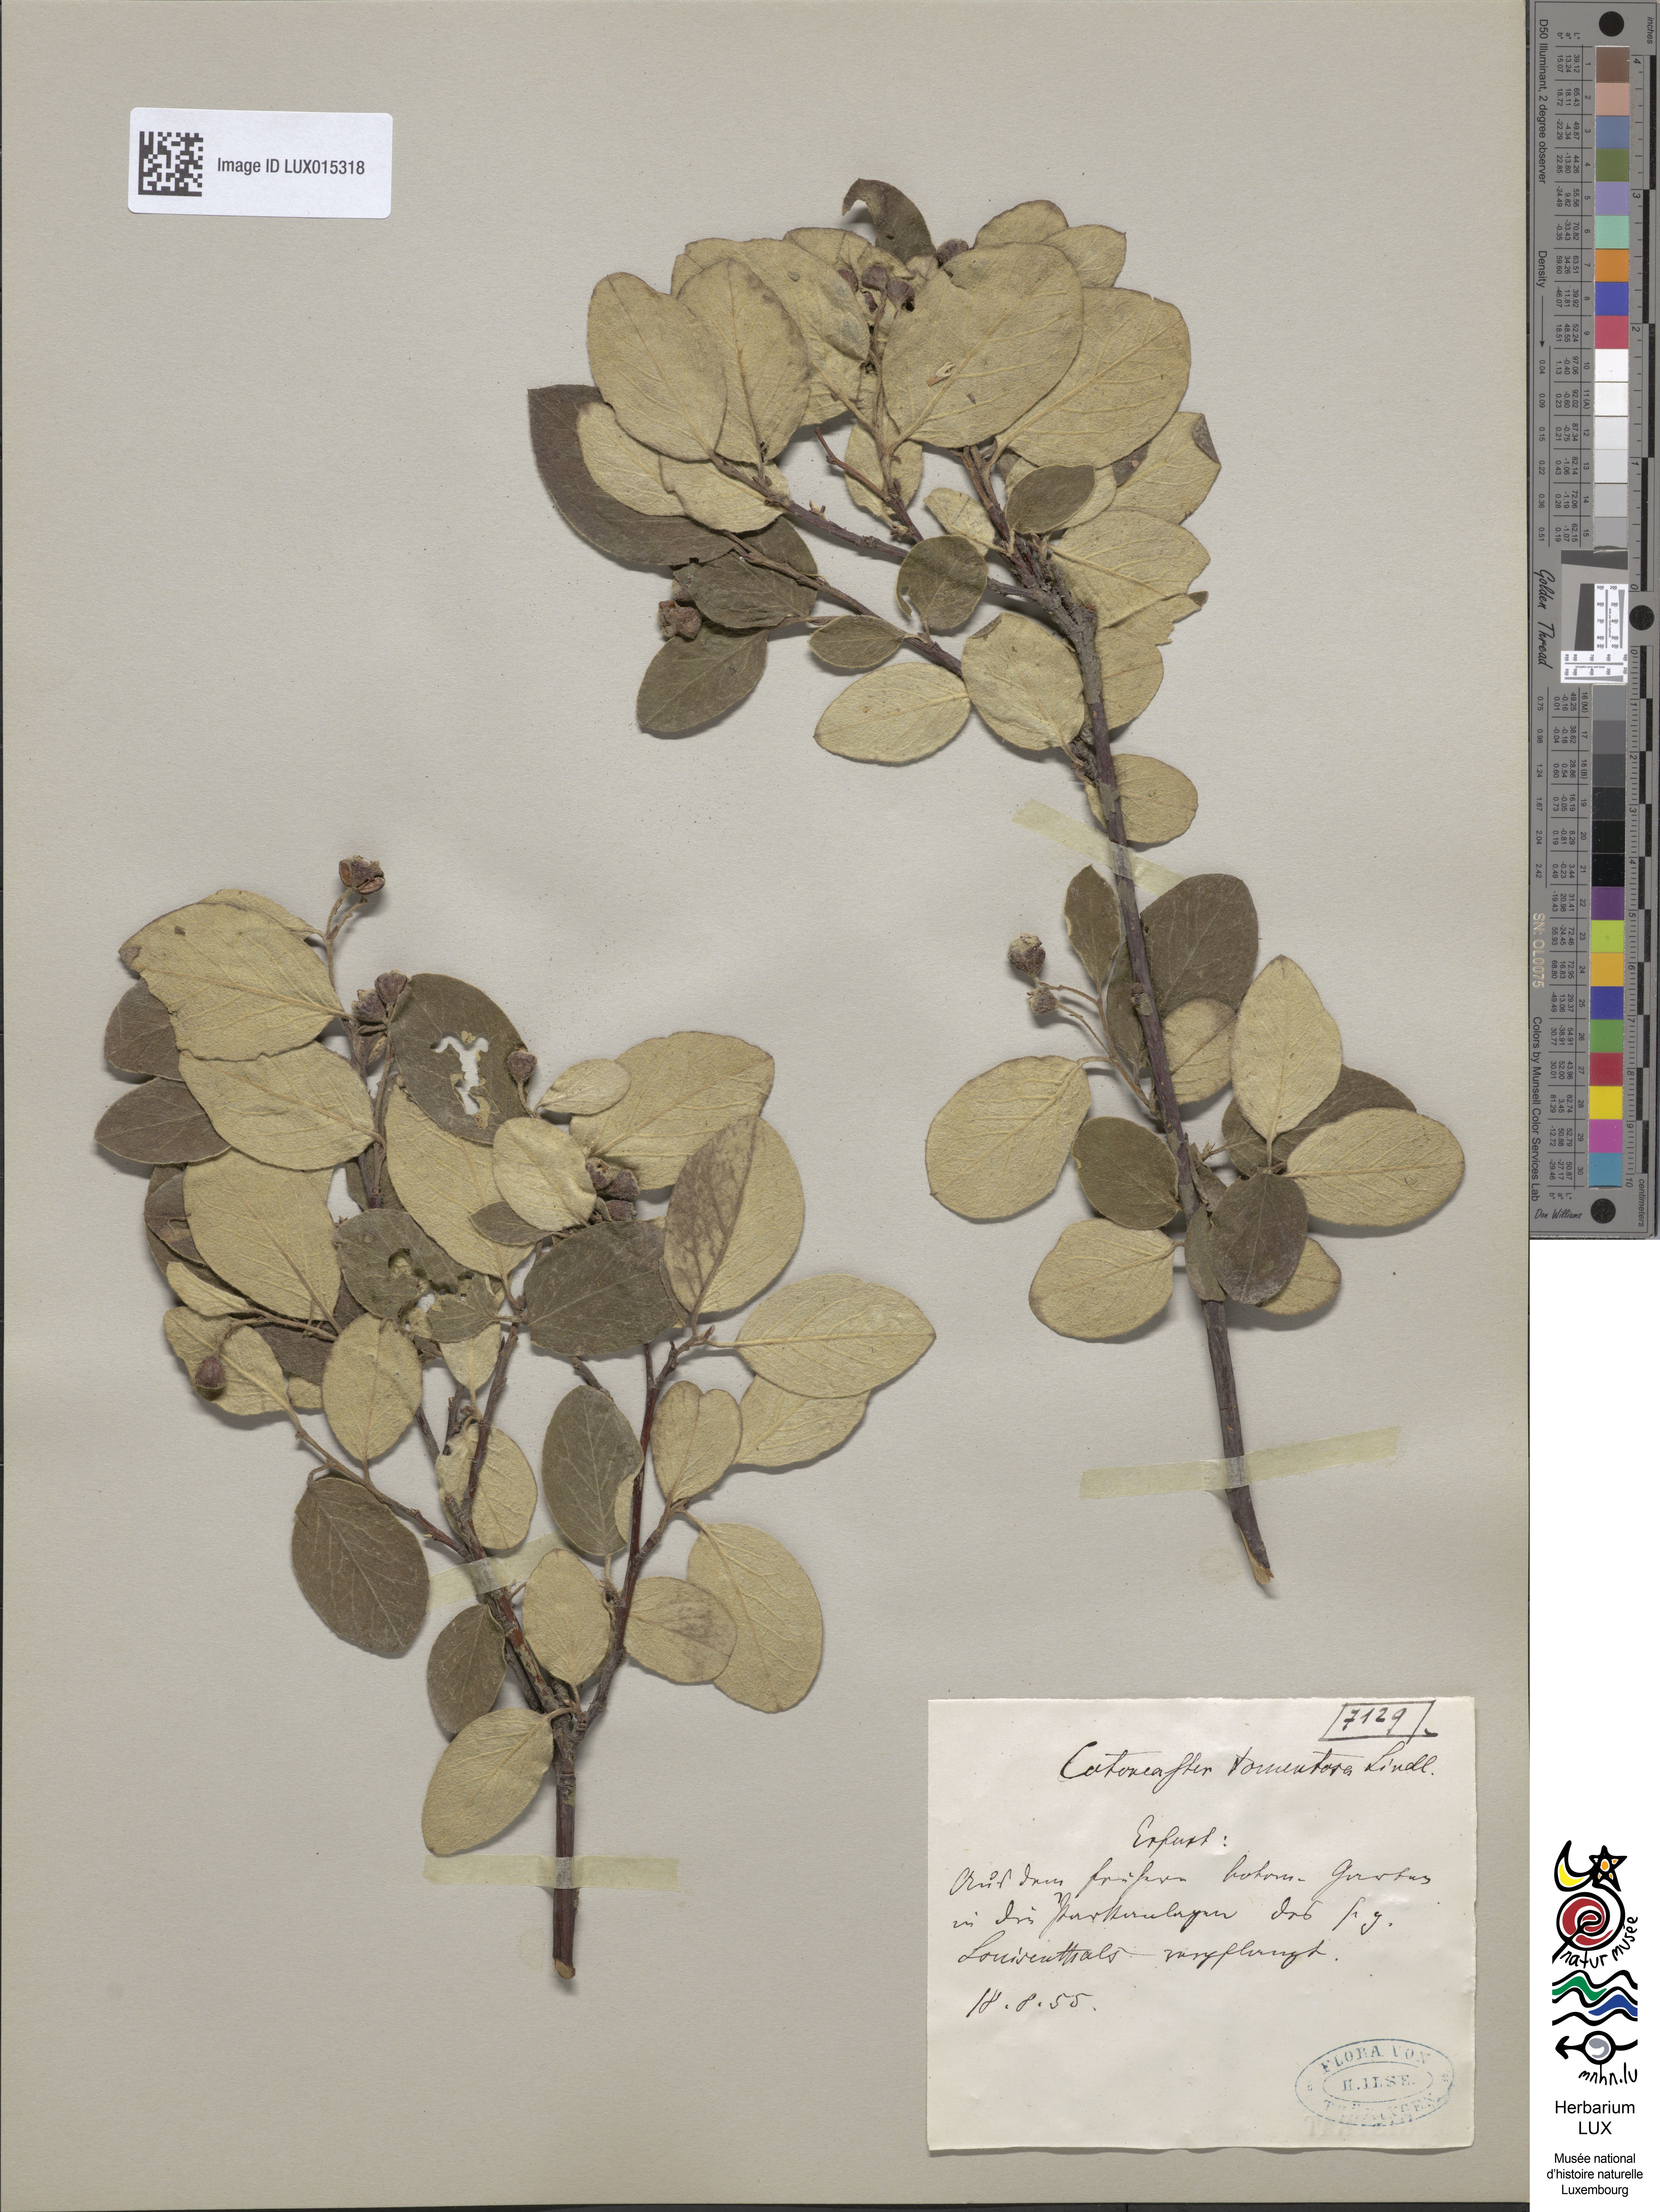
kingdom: Plantae
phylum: Tracheophyta
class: Magnoliopsida
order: Rosales
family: Rosaceae
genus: Cotoneaster
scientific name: Cotoneaster tomentosus
